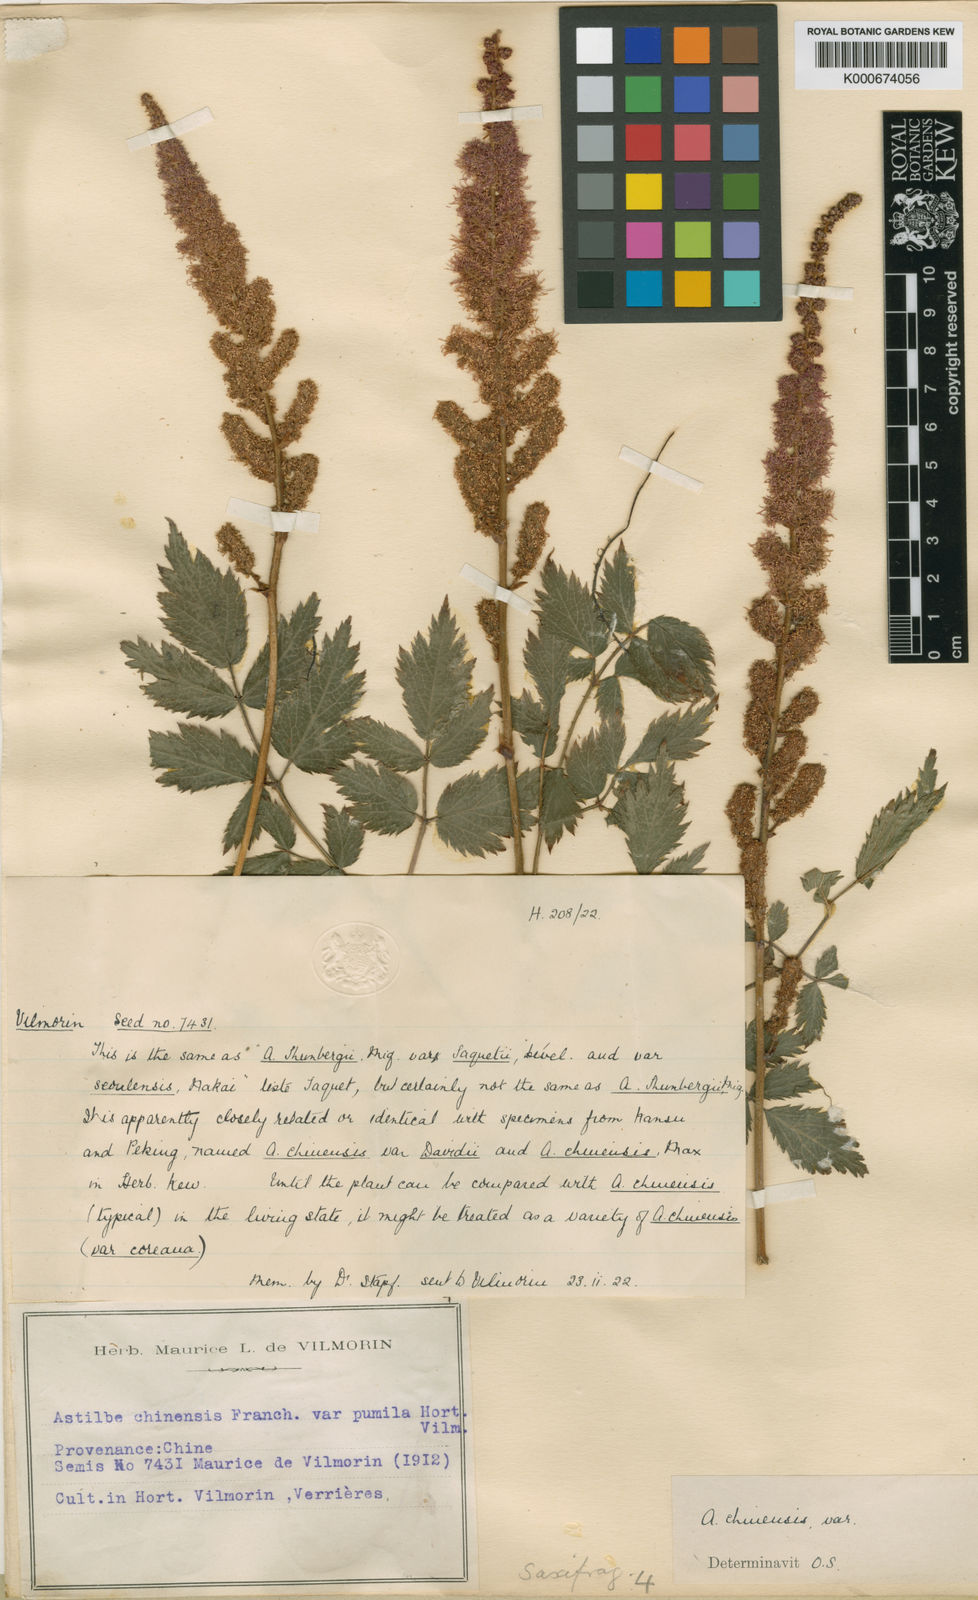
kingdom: Plantae
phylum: Tracheophyta
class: Magnoliopsida
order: Saxifragales
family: Saxifragaceae
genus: Astilbe
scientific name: Astilbe rubra
